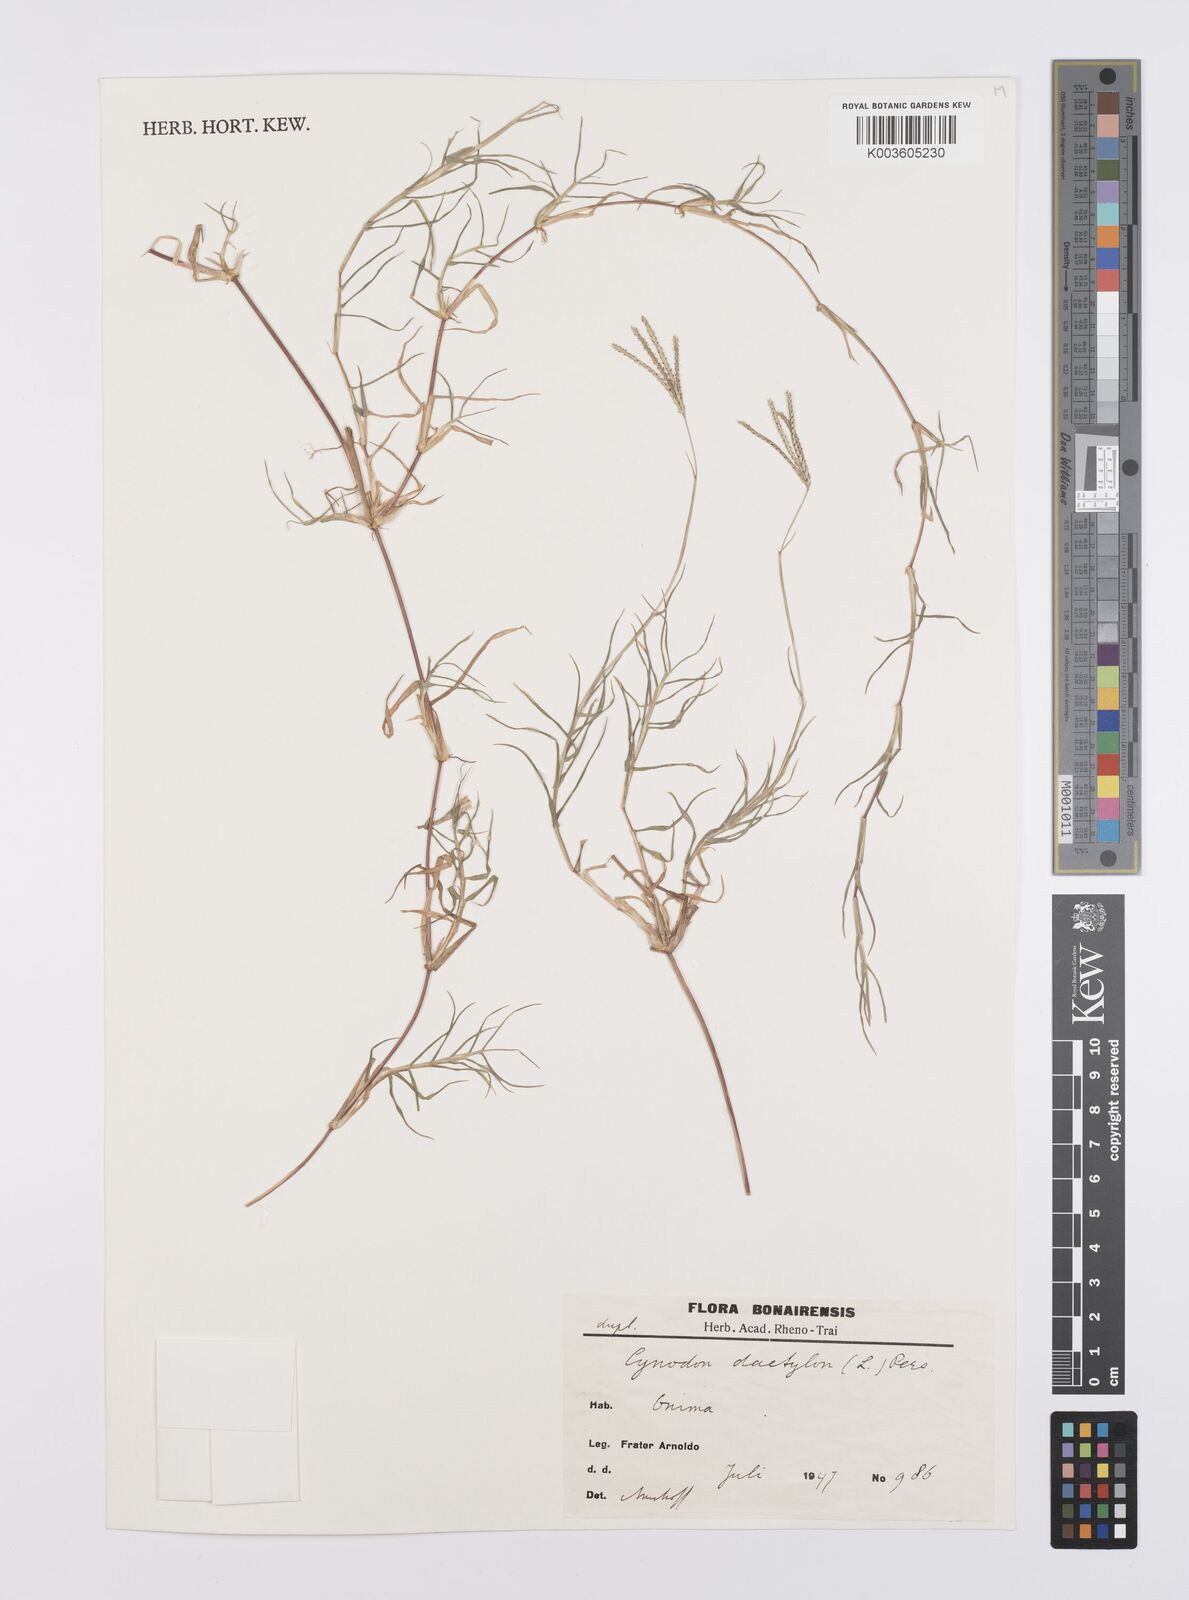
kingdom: Plantae
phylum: Tracheophyta
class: Liliopsida
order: Poales
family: Poaceae
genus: Cynodon
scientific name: Cynodon dactylon
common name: Bermuda grass
